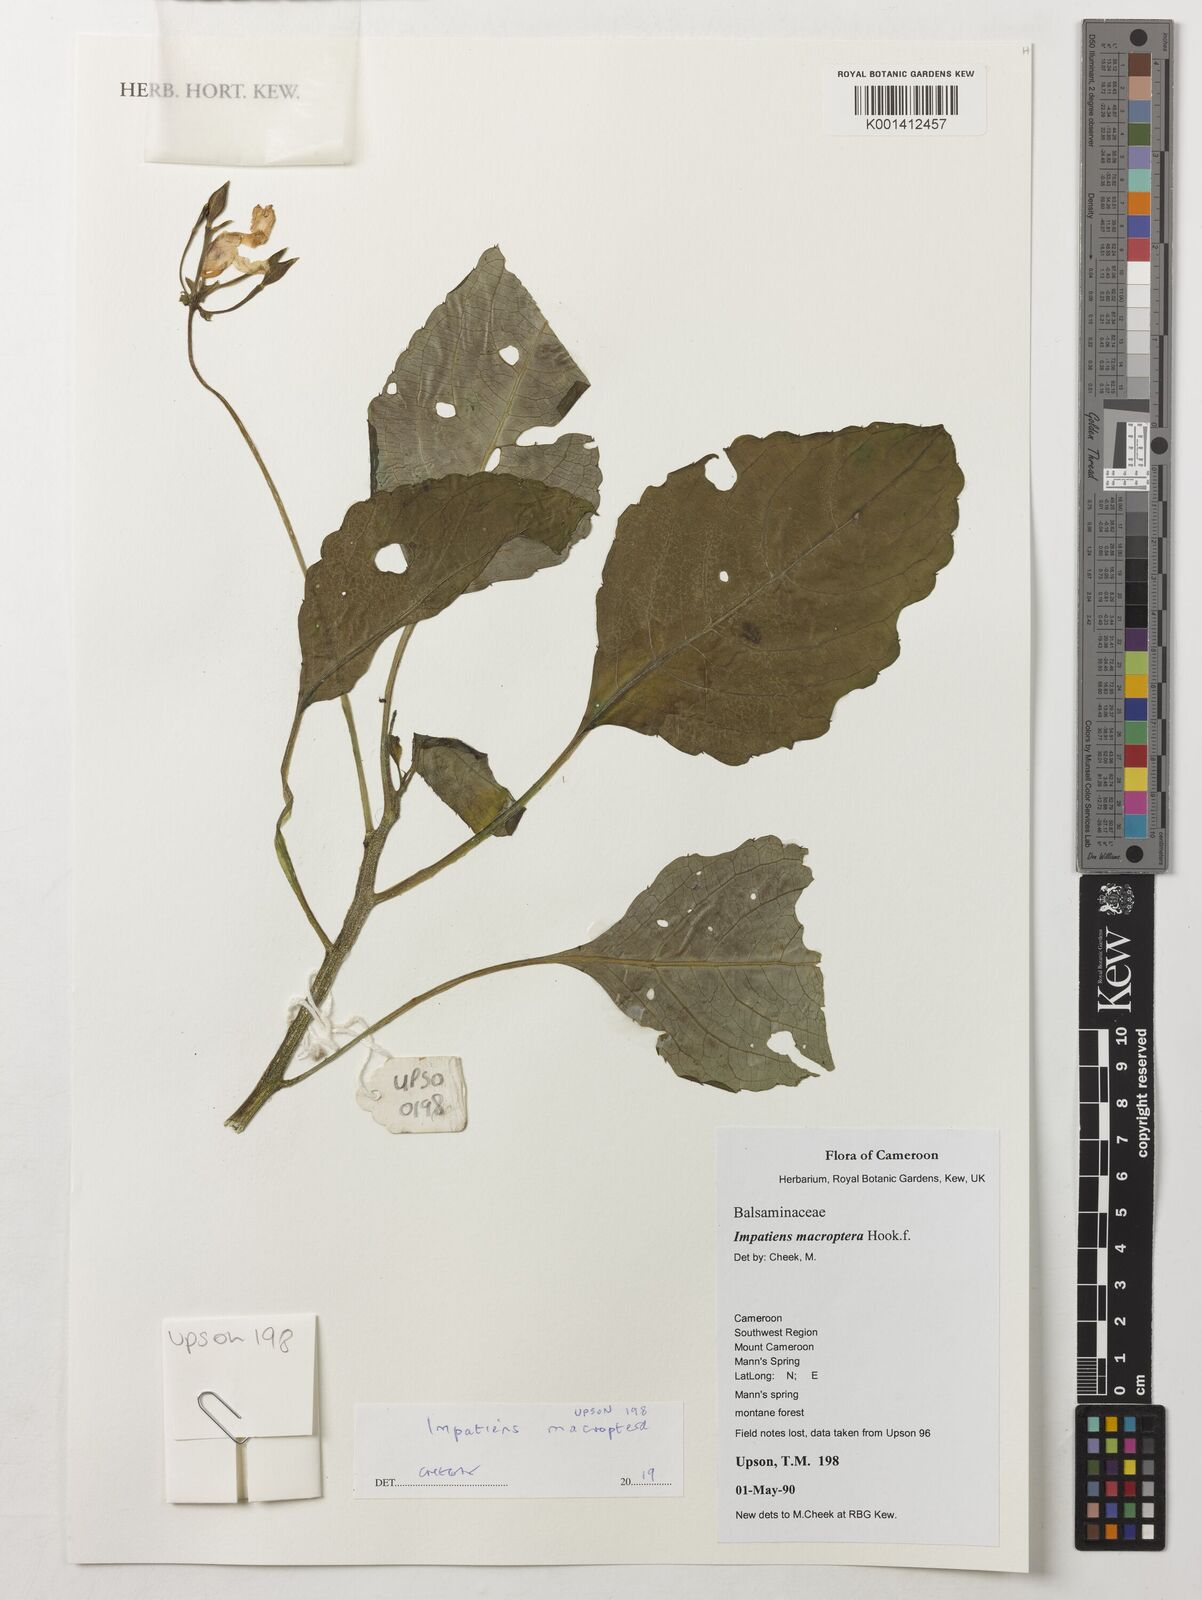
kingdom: Plantae
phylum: Tracheophyta
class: Magnoliopsida
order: Ericales
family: Balsaminaceae
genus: Impatiens
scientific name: Impatiens
